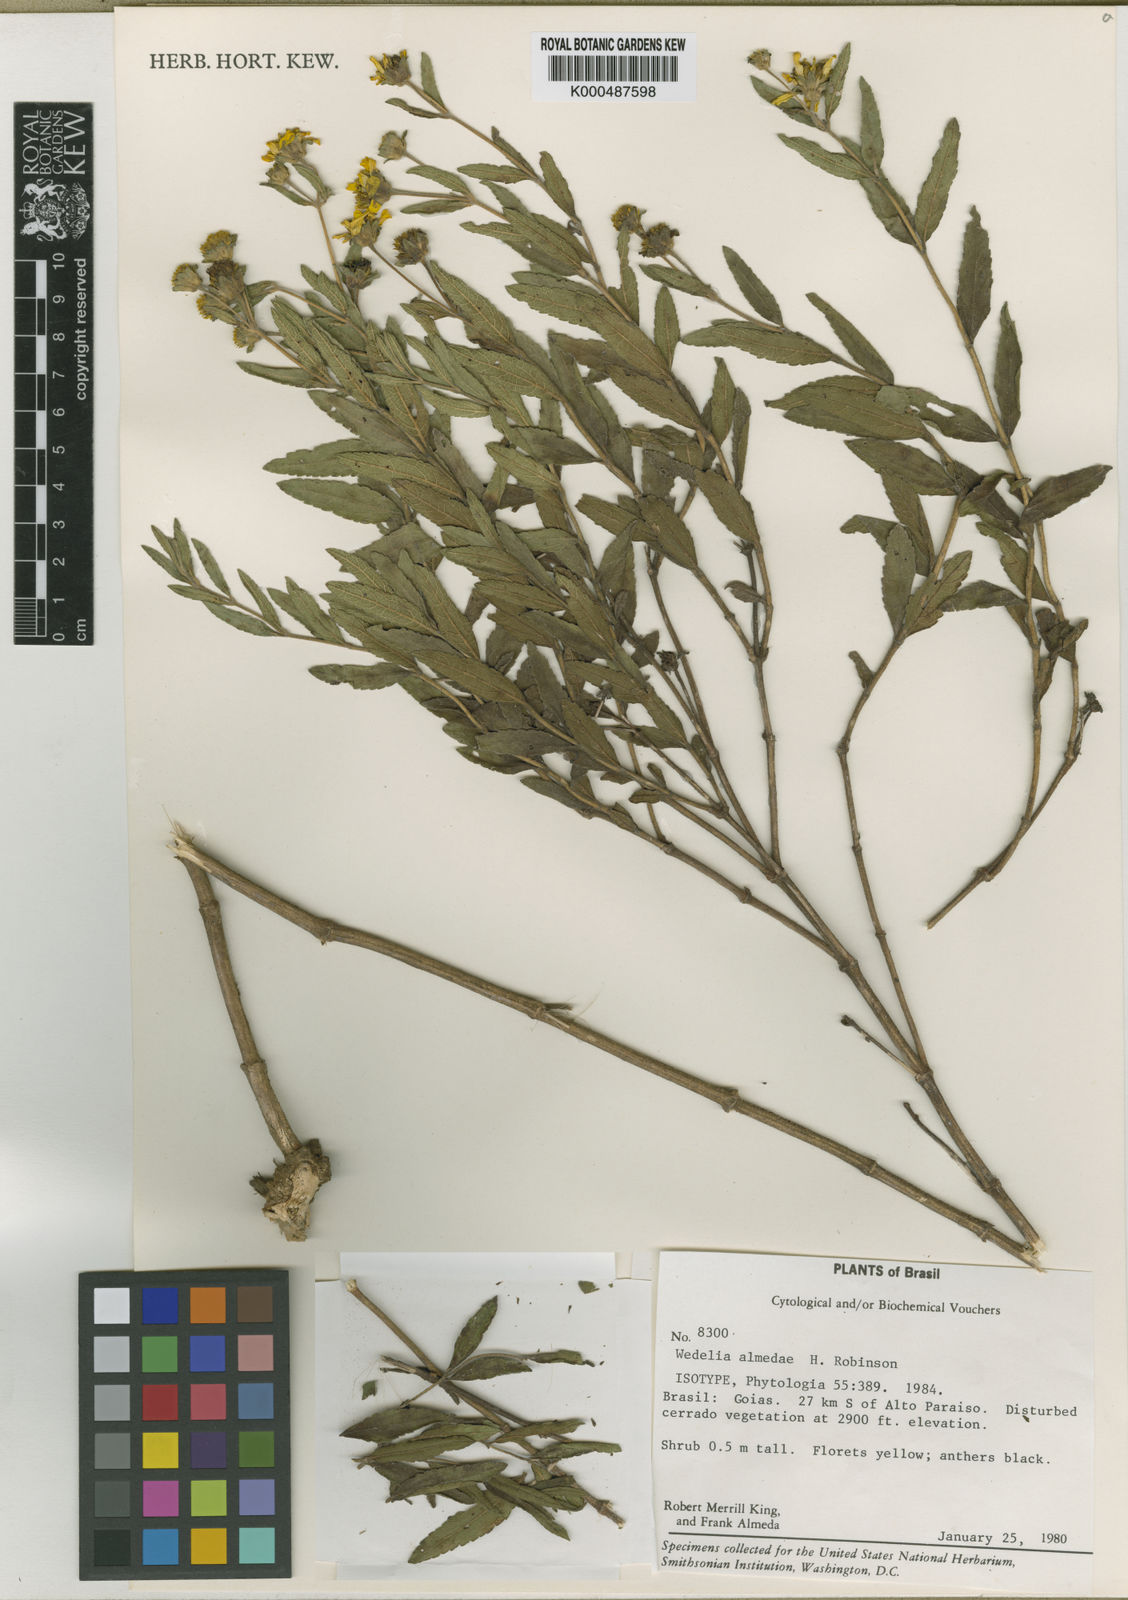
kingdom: Plantae
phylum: Tracheophyta
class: Magnoliopsida
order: Asterales
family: Asteraceae
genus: Wedelia
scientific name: Wedelia almedae
